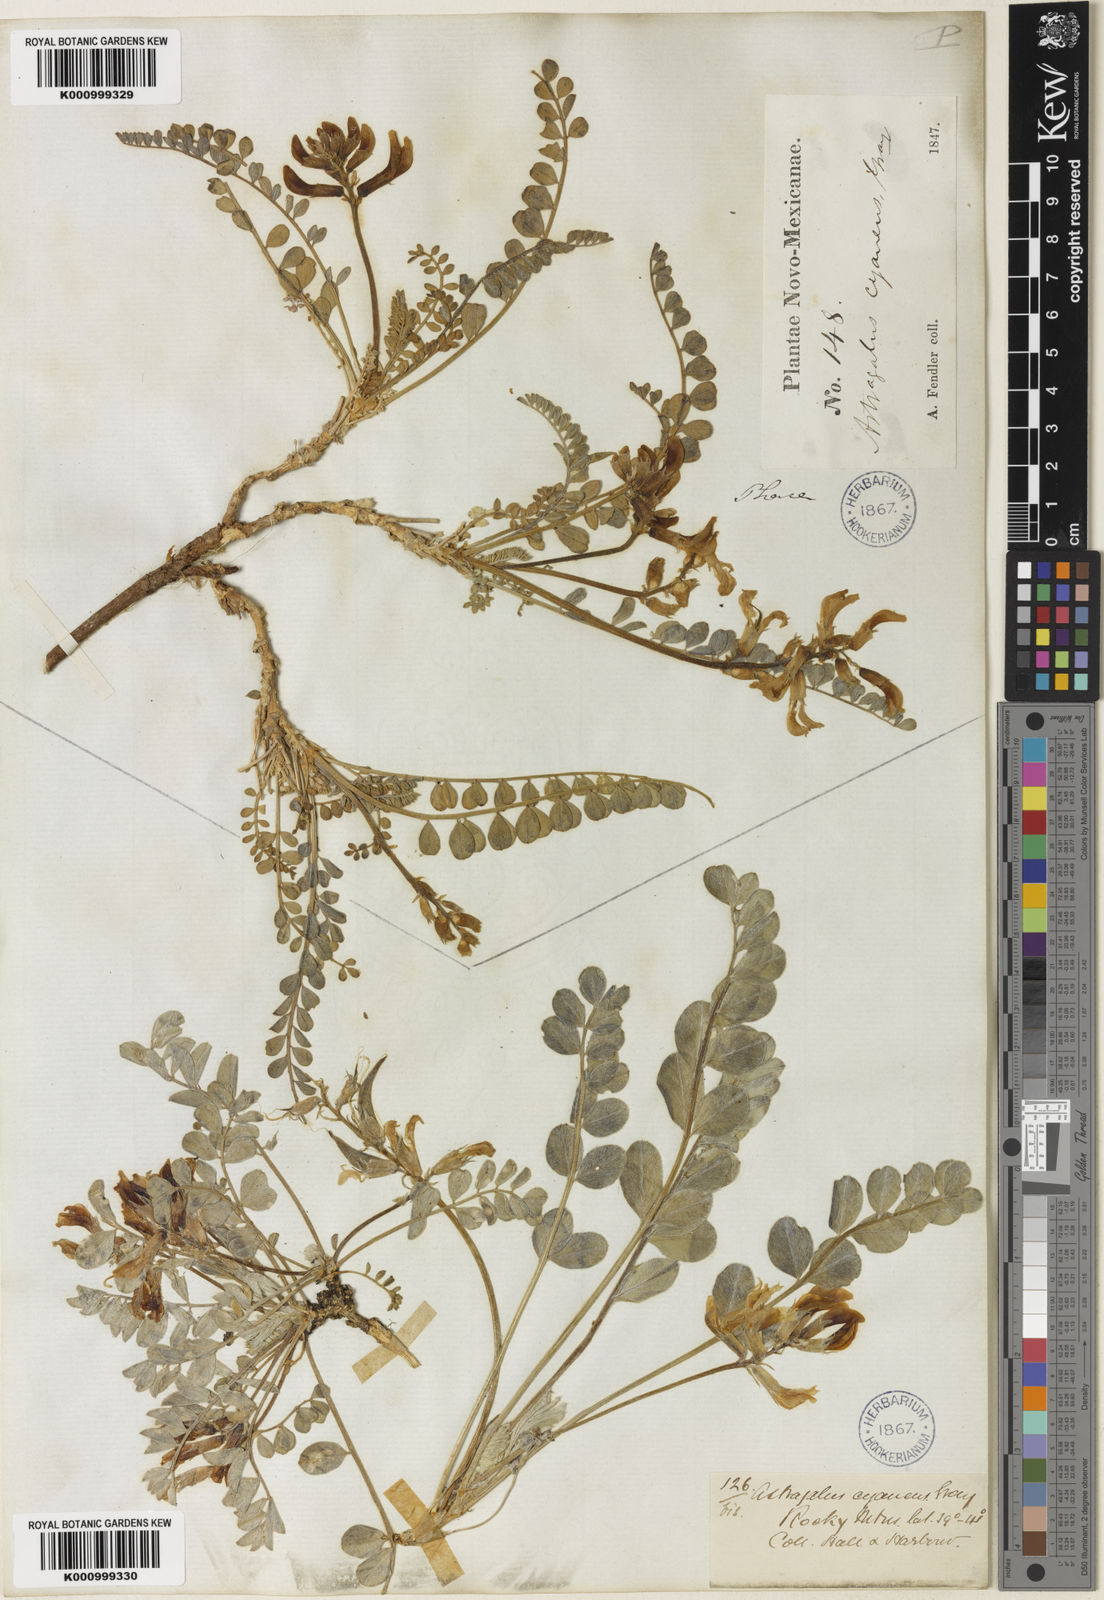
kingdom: Plantae
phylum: Tracheophyta
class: Magnoliopsida
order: Fabales
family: Fabaceae
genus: Astragalus
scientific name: Astragalus shortianus
